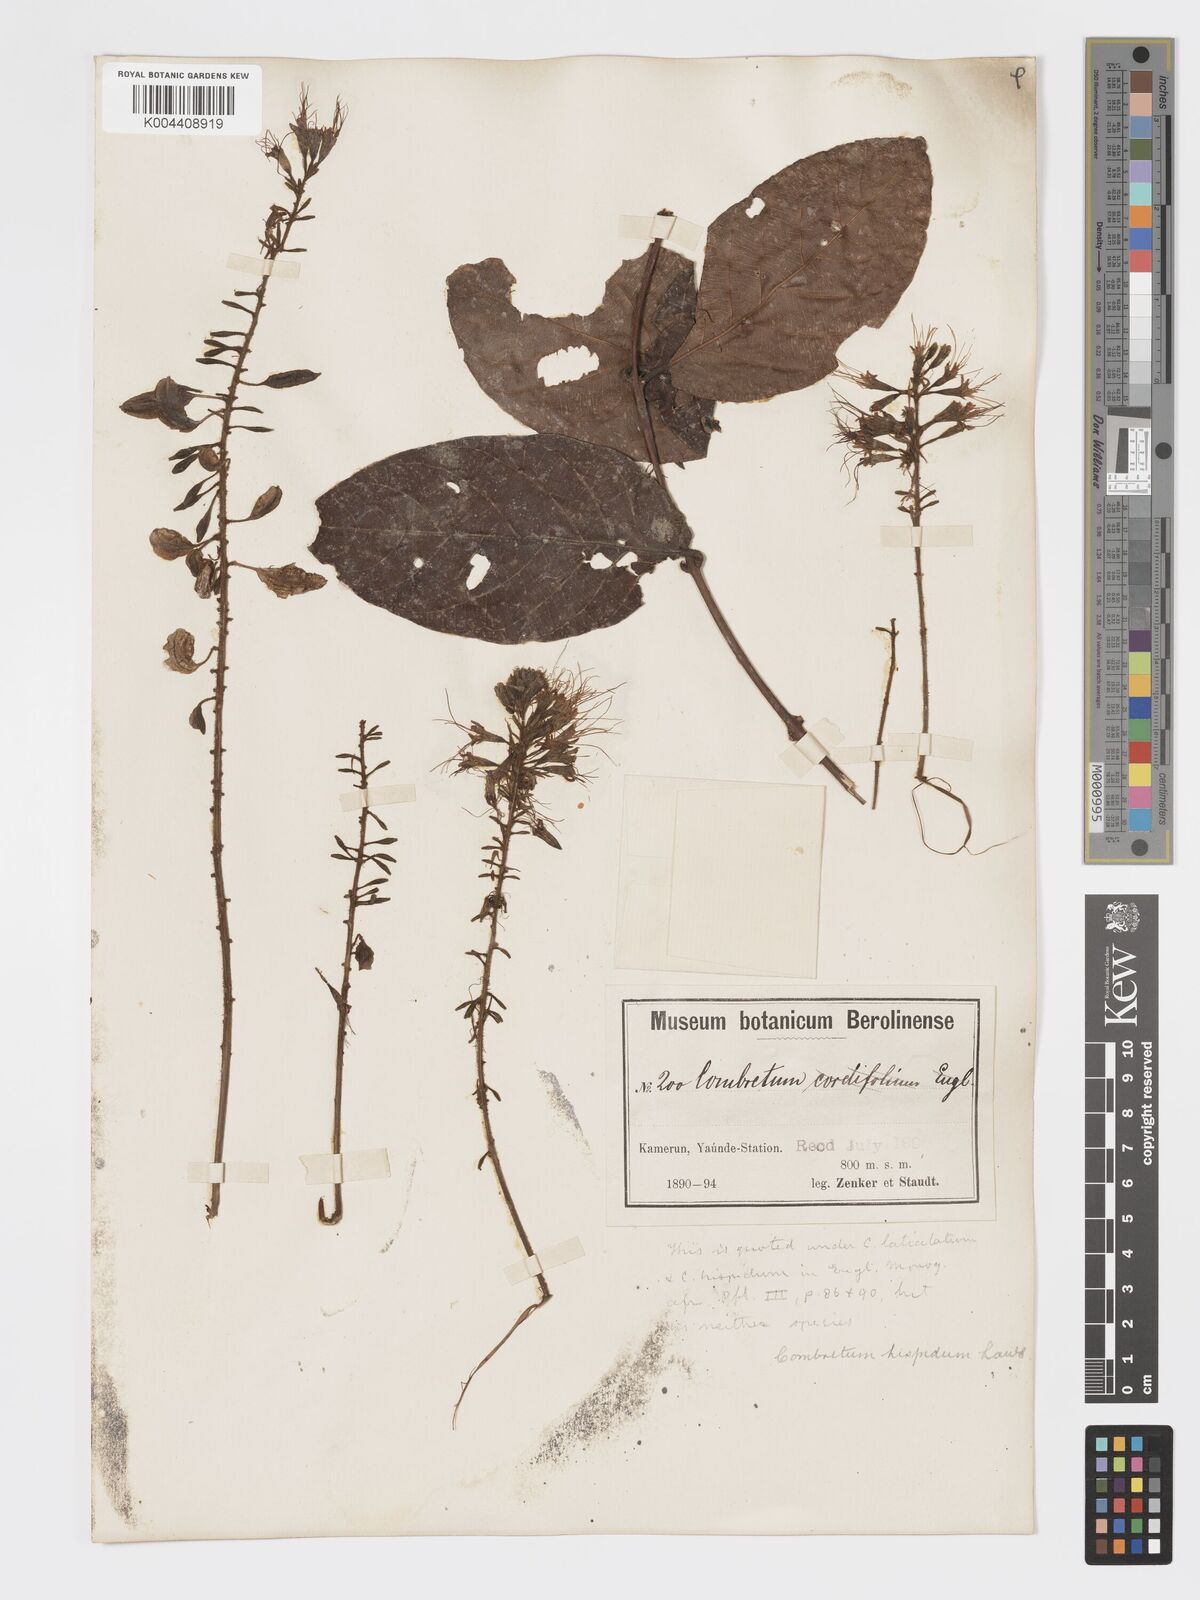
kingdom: Plantae
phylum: Tracheophyta
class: Magnoliopsida
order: Myrtales
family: Combretaceae
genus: Combretum
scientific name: Combretum
